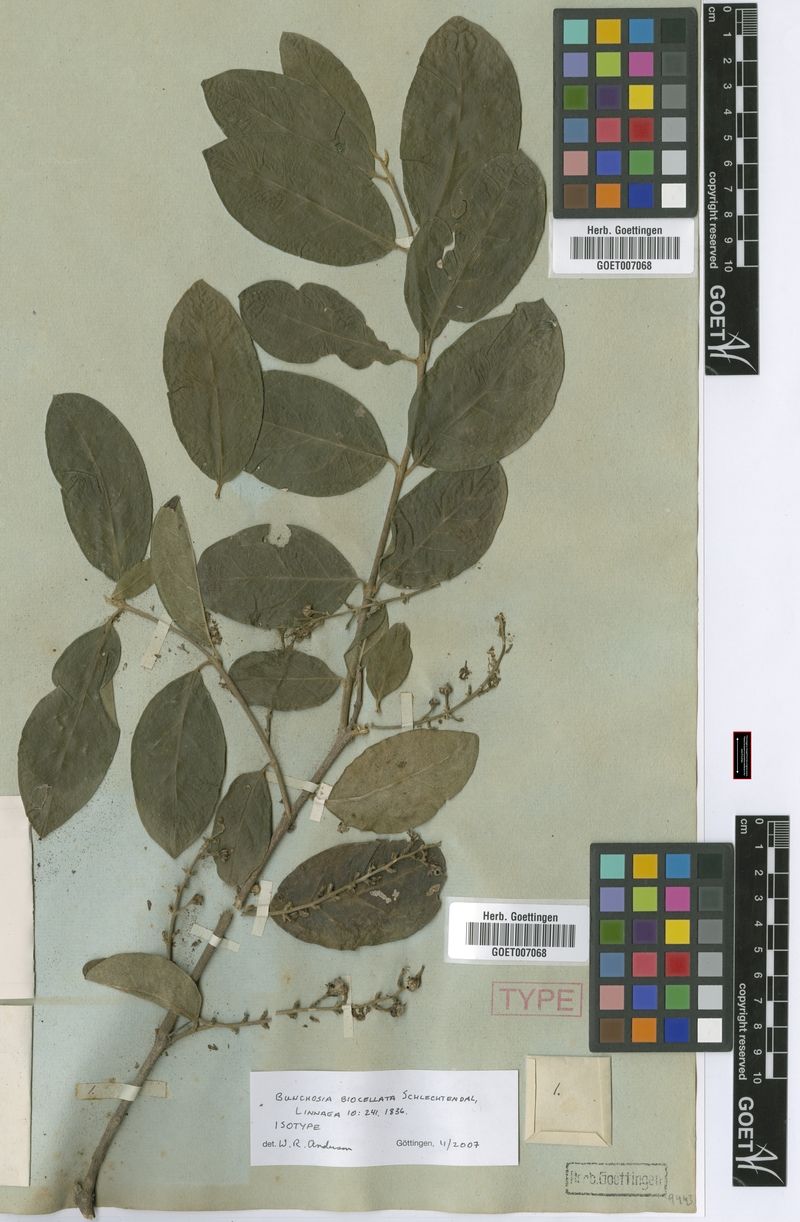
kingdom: Plantae
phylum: Tracheophyta
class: Magnoliopsida
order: Malpighiales
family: Malpighiaceae
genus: Bunchosia
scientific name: Bunchosia biocellata
